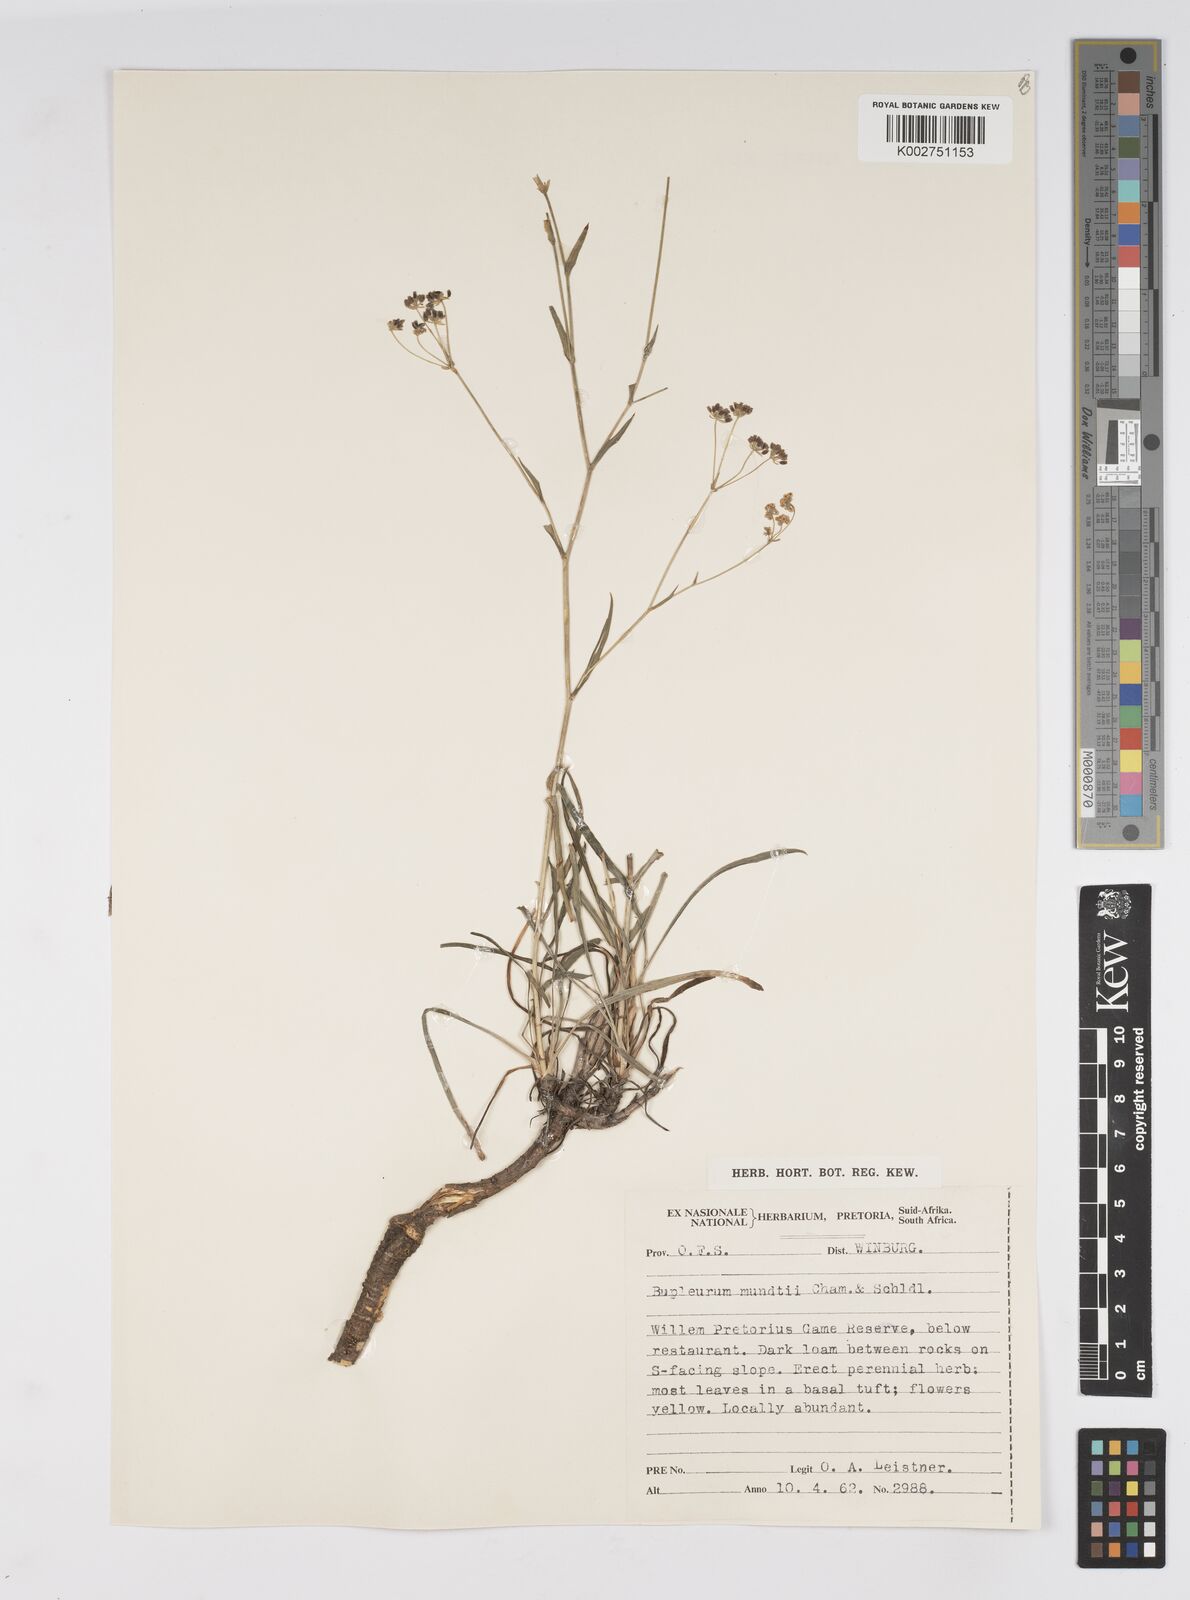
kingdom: Plantae
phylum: Tracheophyta
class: Magnoliopsida
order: Apiales
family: Apiaceae
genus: Bupleurum
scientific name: Bupleurum mundii
